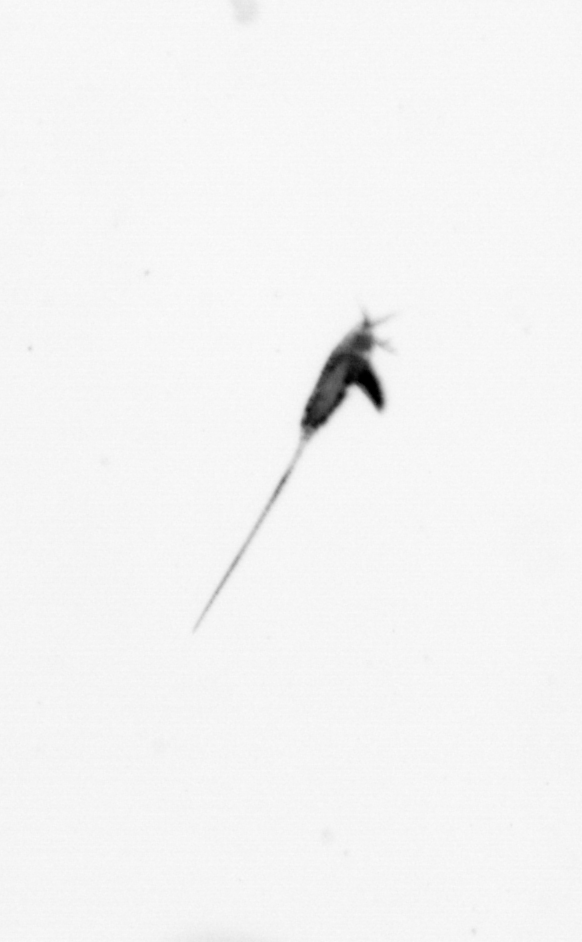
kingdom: Animalia
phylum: Arthropoda
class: Copepoda
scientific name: Copepoda
